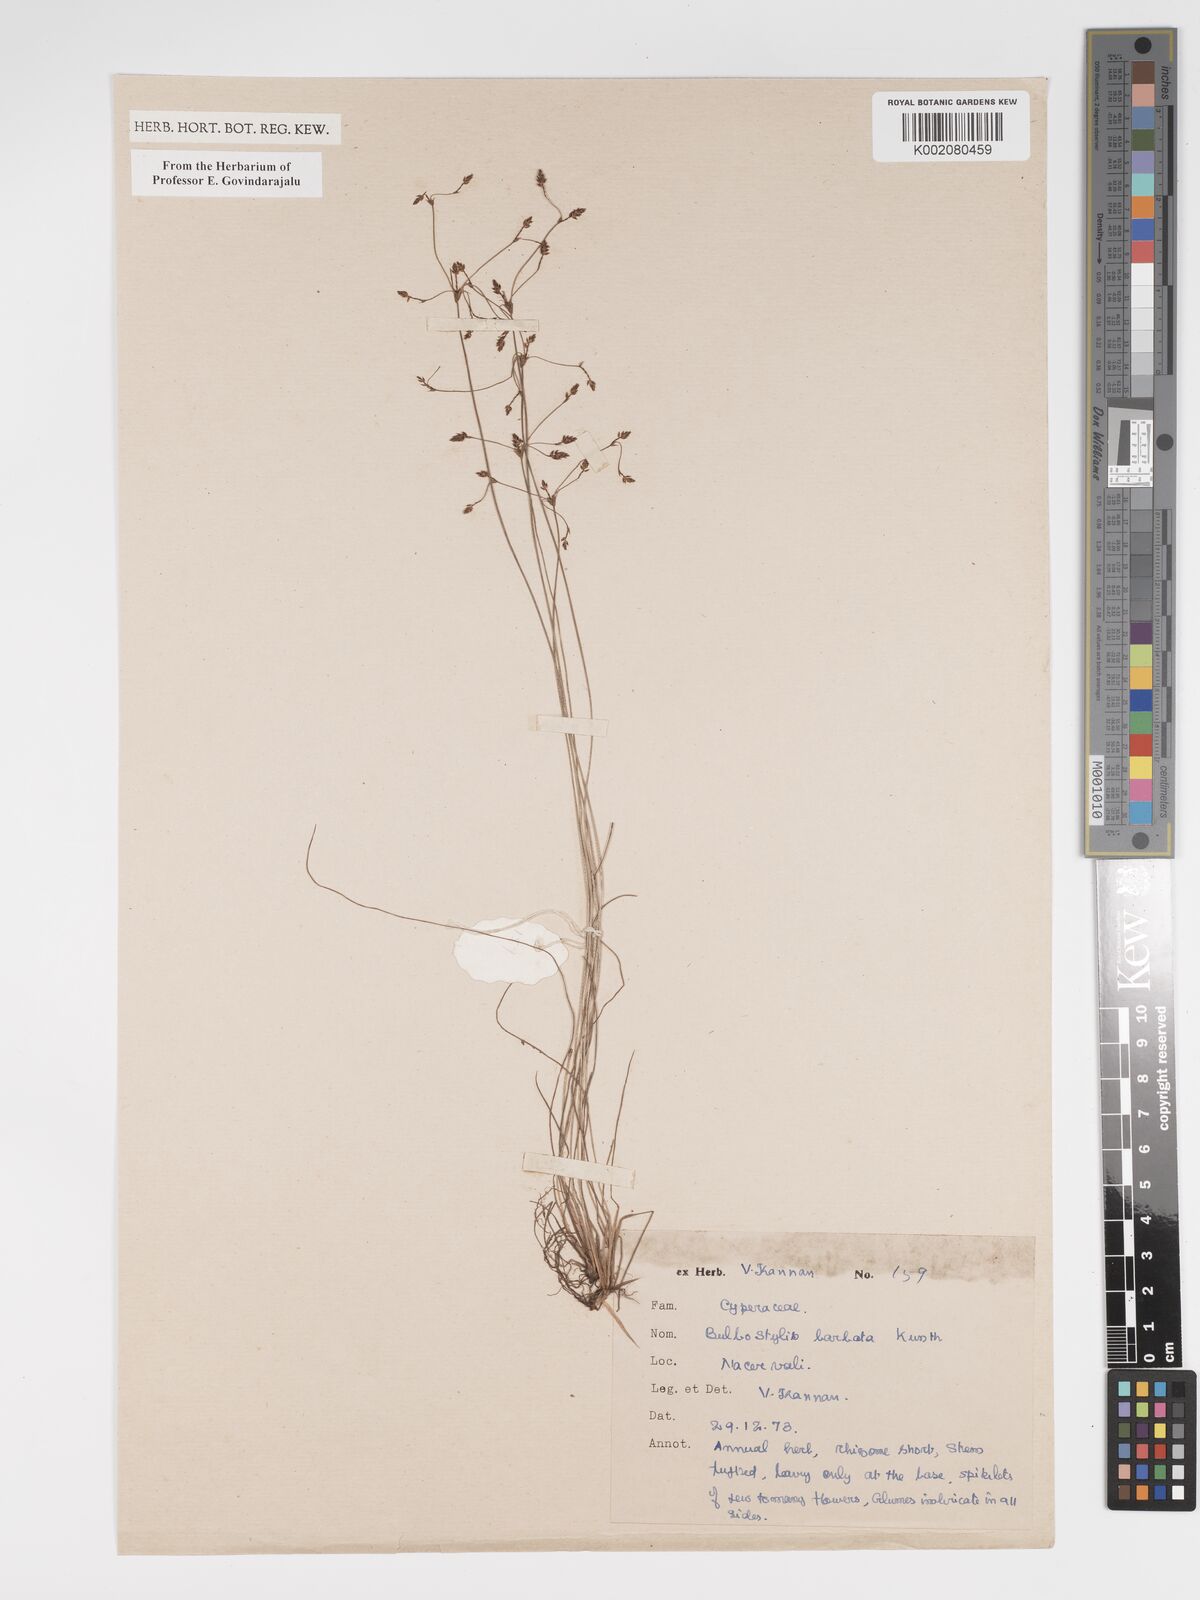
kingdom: Plantae
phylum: Tracheophyta
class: Liliopsida
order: Poales
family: Cyperaceae
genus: Bulbostylis
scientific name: Bulbostylis barbata
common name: Watergrass
